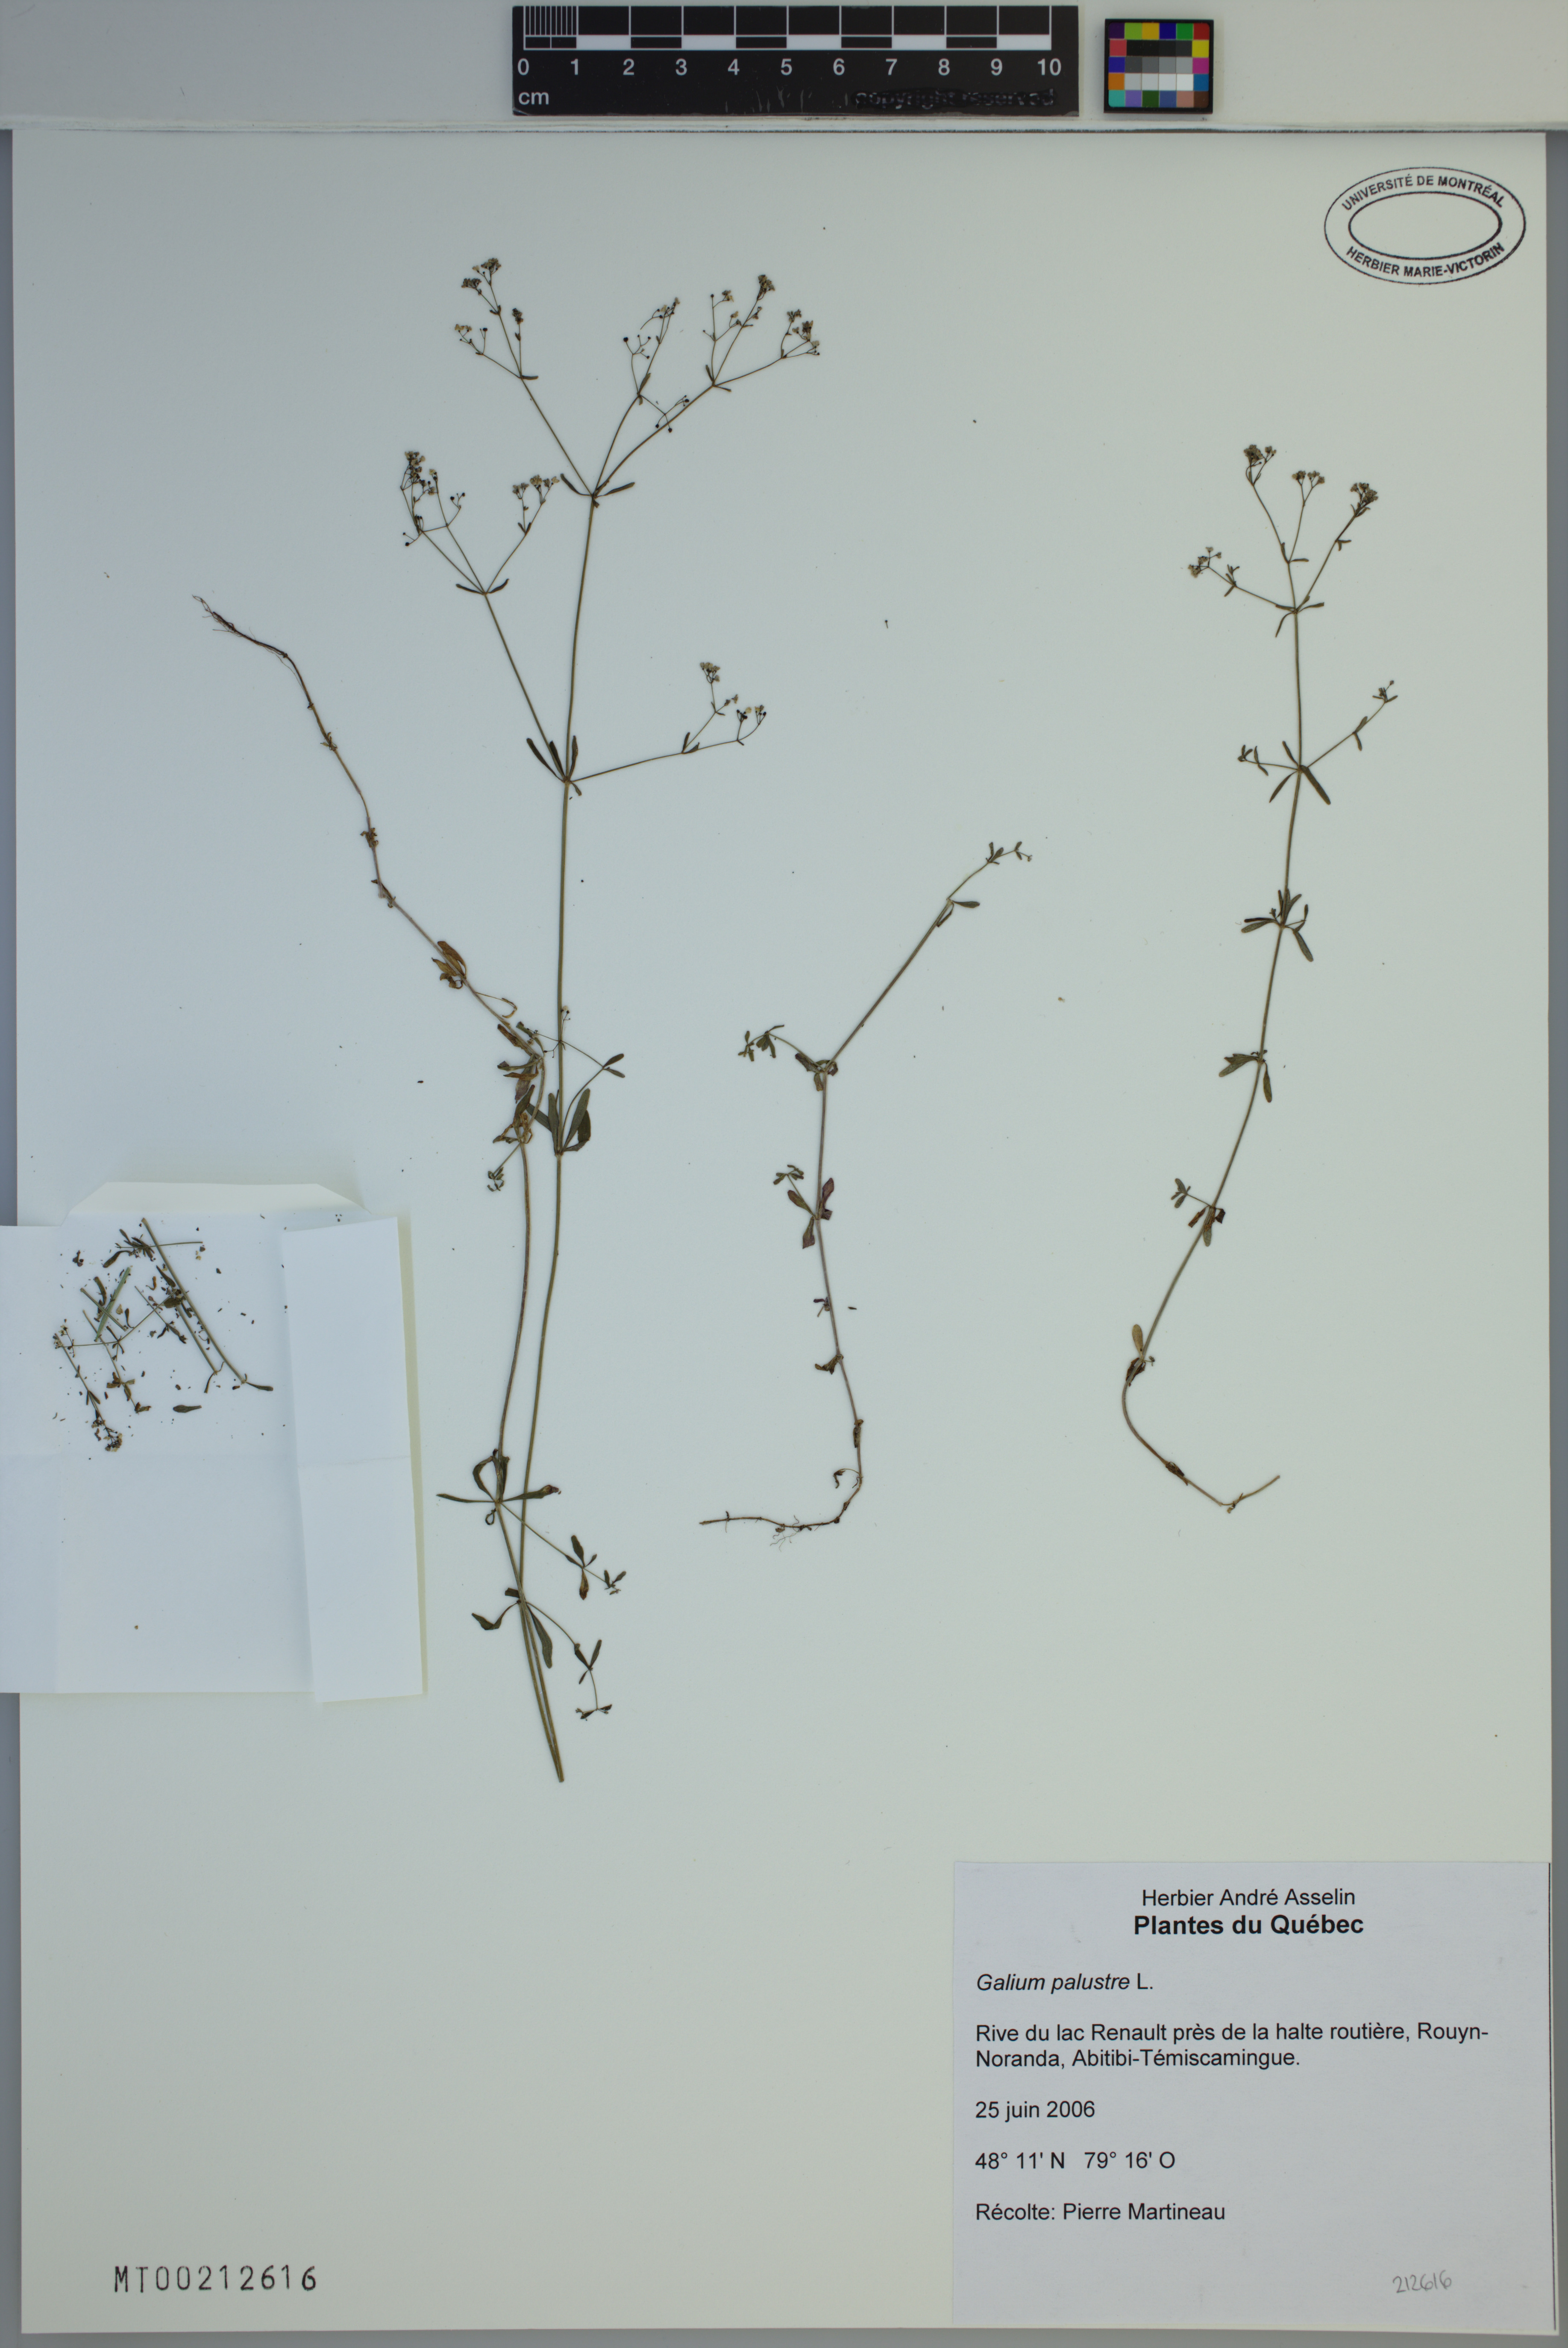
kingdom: Plantae
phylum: Tracheophyta
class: Magnoliopsida
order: Gentianales
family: Rubiaceae
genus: Galium
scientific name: Galium palustre
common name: Common marsh-bedstraw
